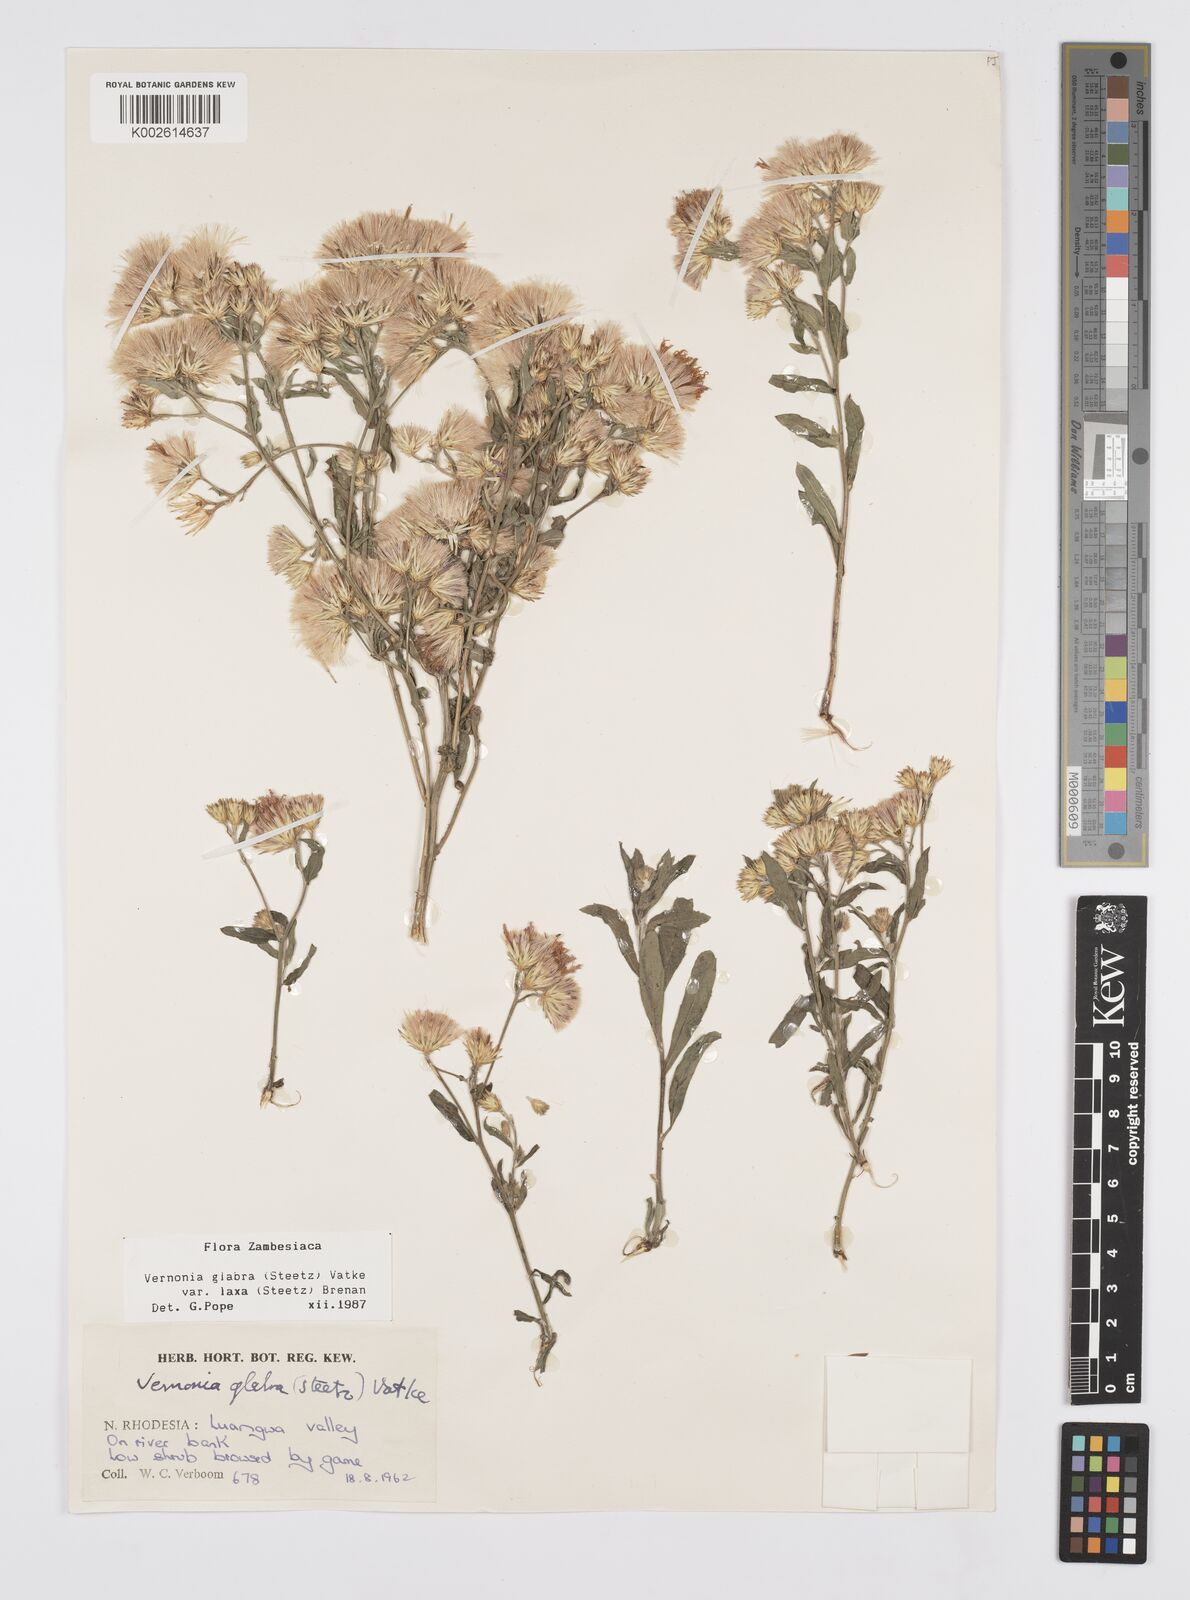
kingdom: Plantae
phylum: Tracheophyta
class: Magnoliopsida
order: Asterales
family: Asteraceae
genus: Linzia
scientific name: Linzia glabra
